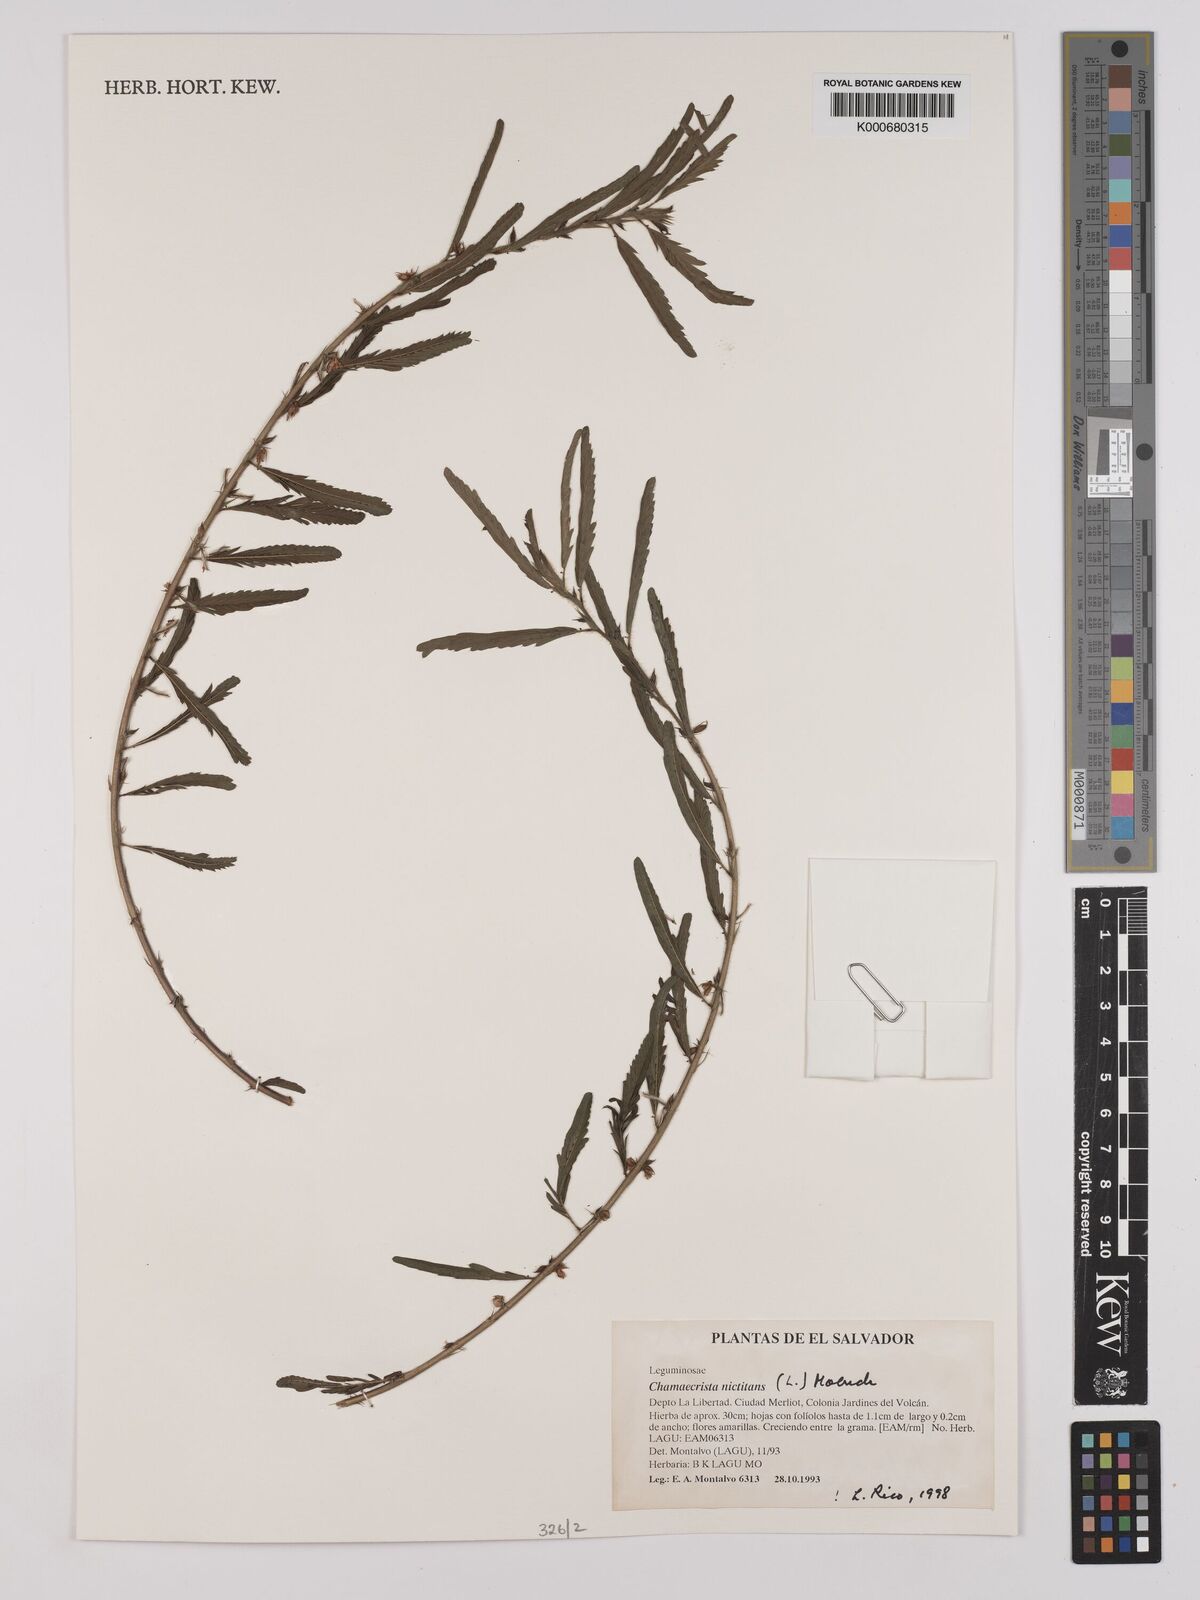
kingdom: Plantae
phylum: Tracheophyta
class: Magnoliopsida
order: Fabales
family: Fabaceae
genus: Chamaecrista
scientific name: Chamaecrista nictitans
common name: Sensitive cassia
